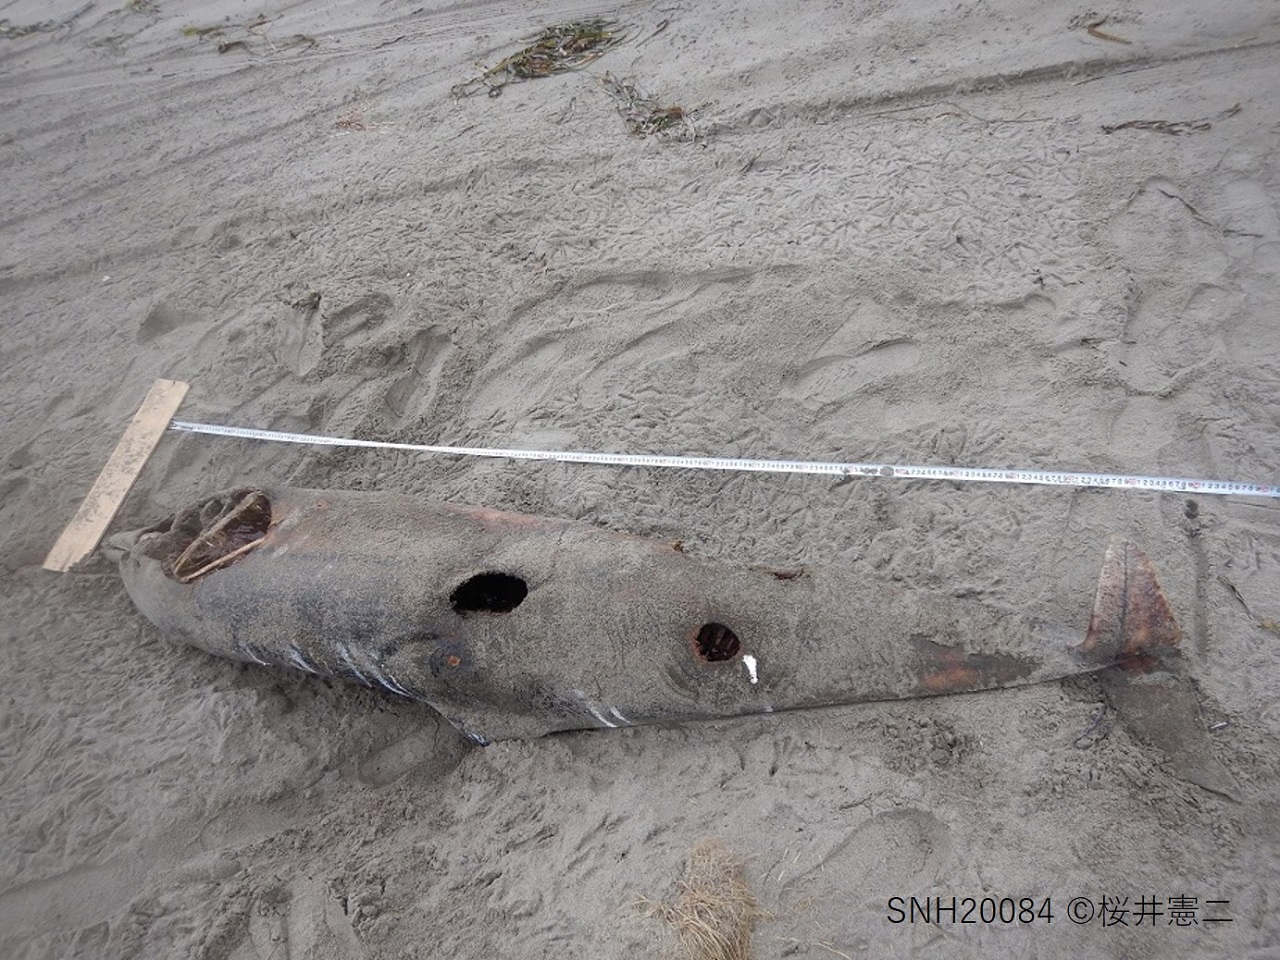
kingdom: Animalia
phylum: Chordata
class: Mammalia
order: Cetacea
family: Delphinidae
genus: Lagenorhynchus
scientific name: Lagenorhynchus obliquidens
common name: Pacific white-sided dolphin
